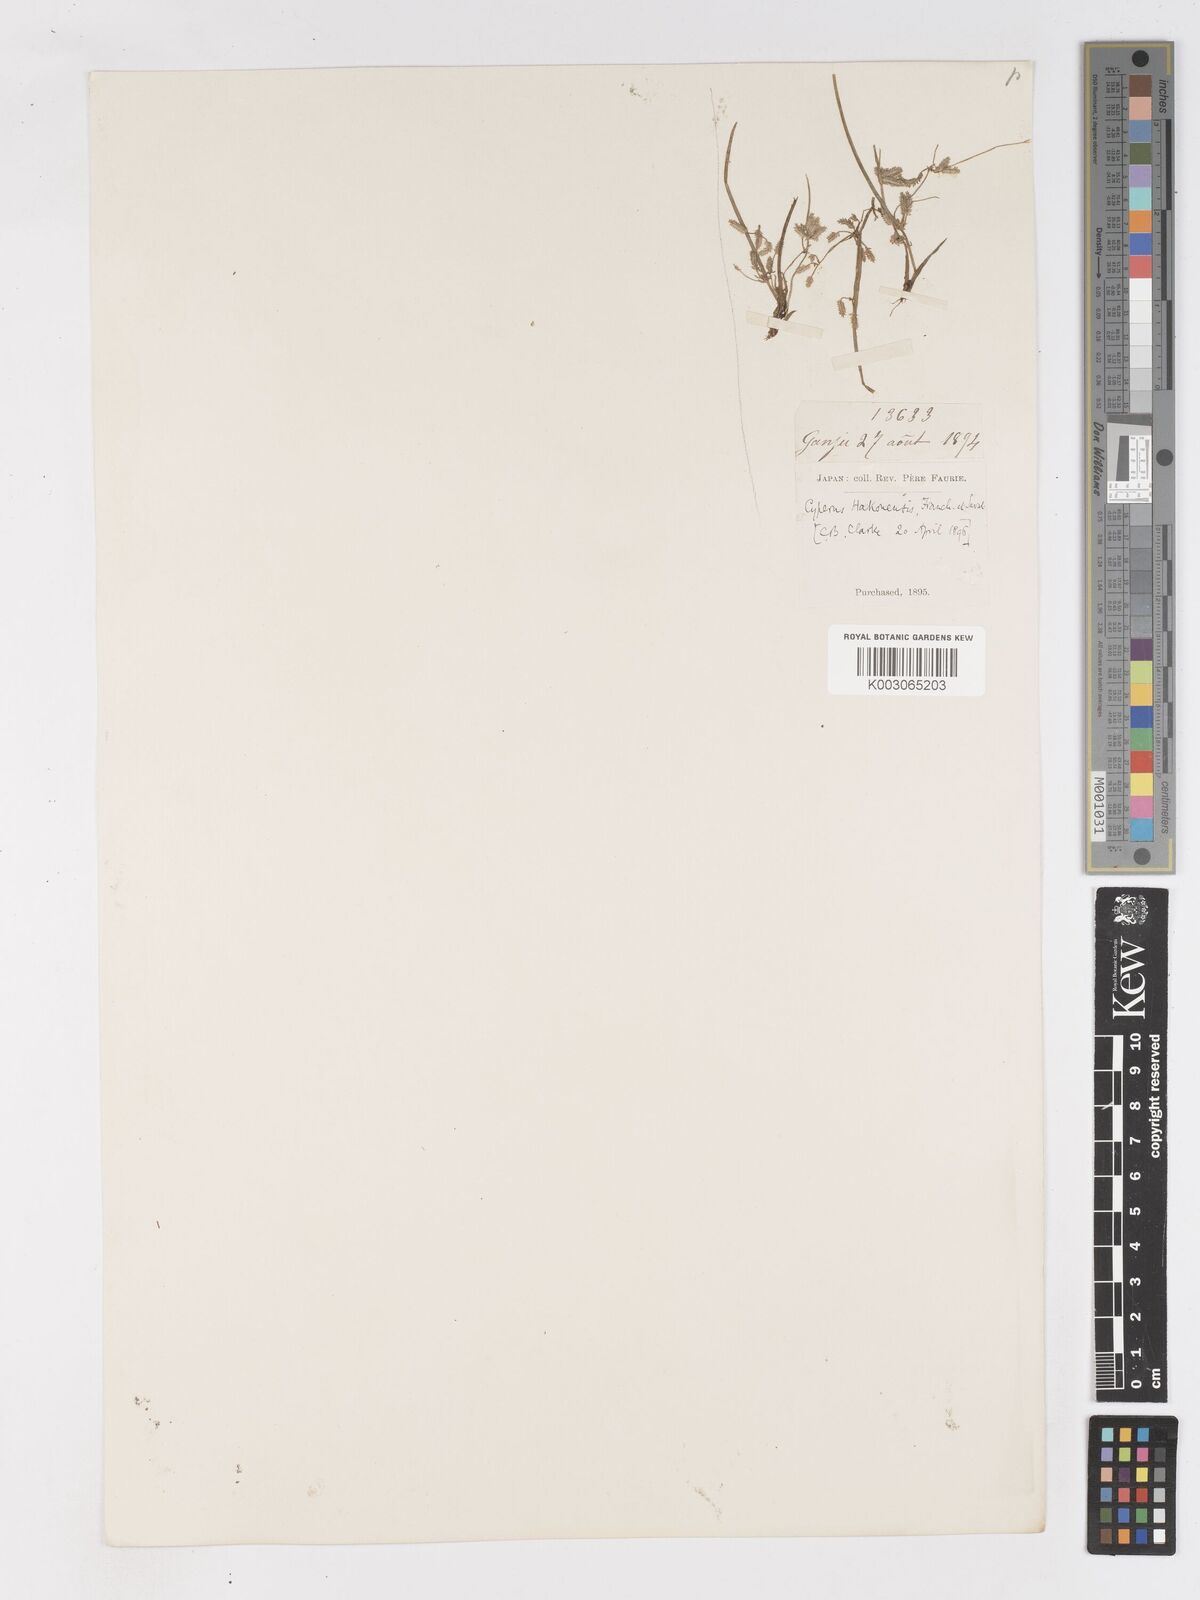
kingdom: Plantae
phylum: Tracheophyta
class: Liliopsida
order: Poales
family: Cyperaceae
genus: Cyperus
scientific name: Cyperus flaccidus
